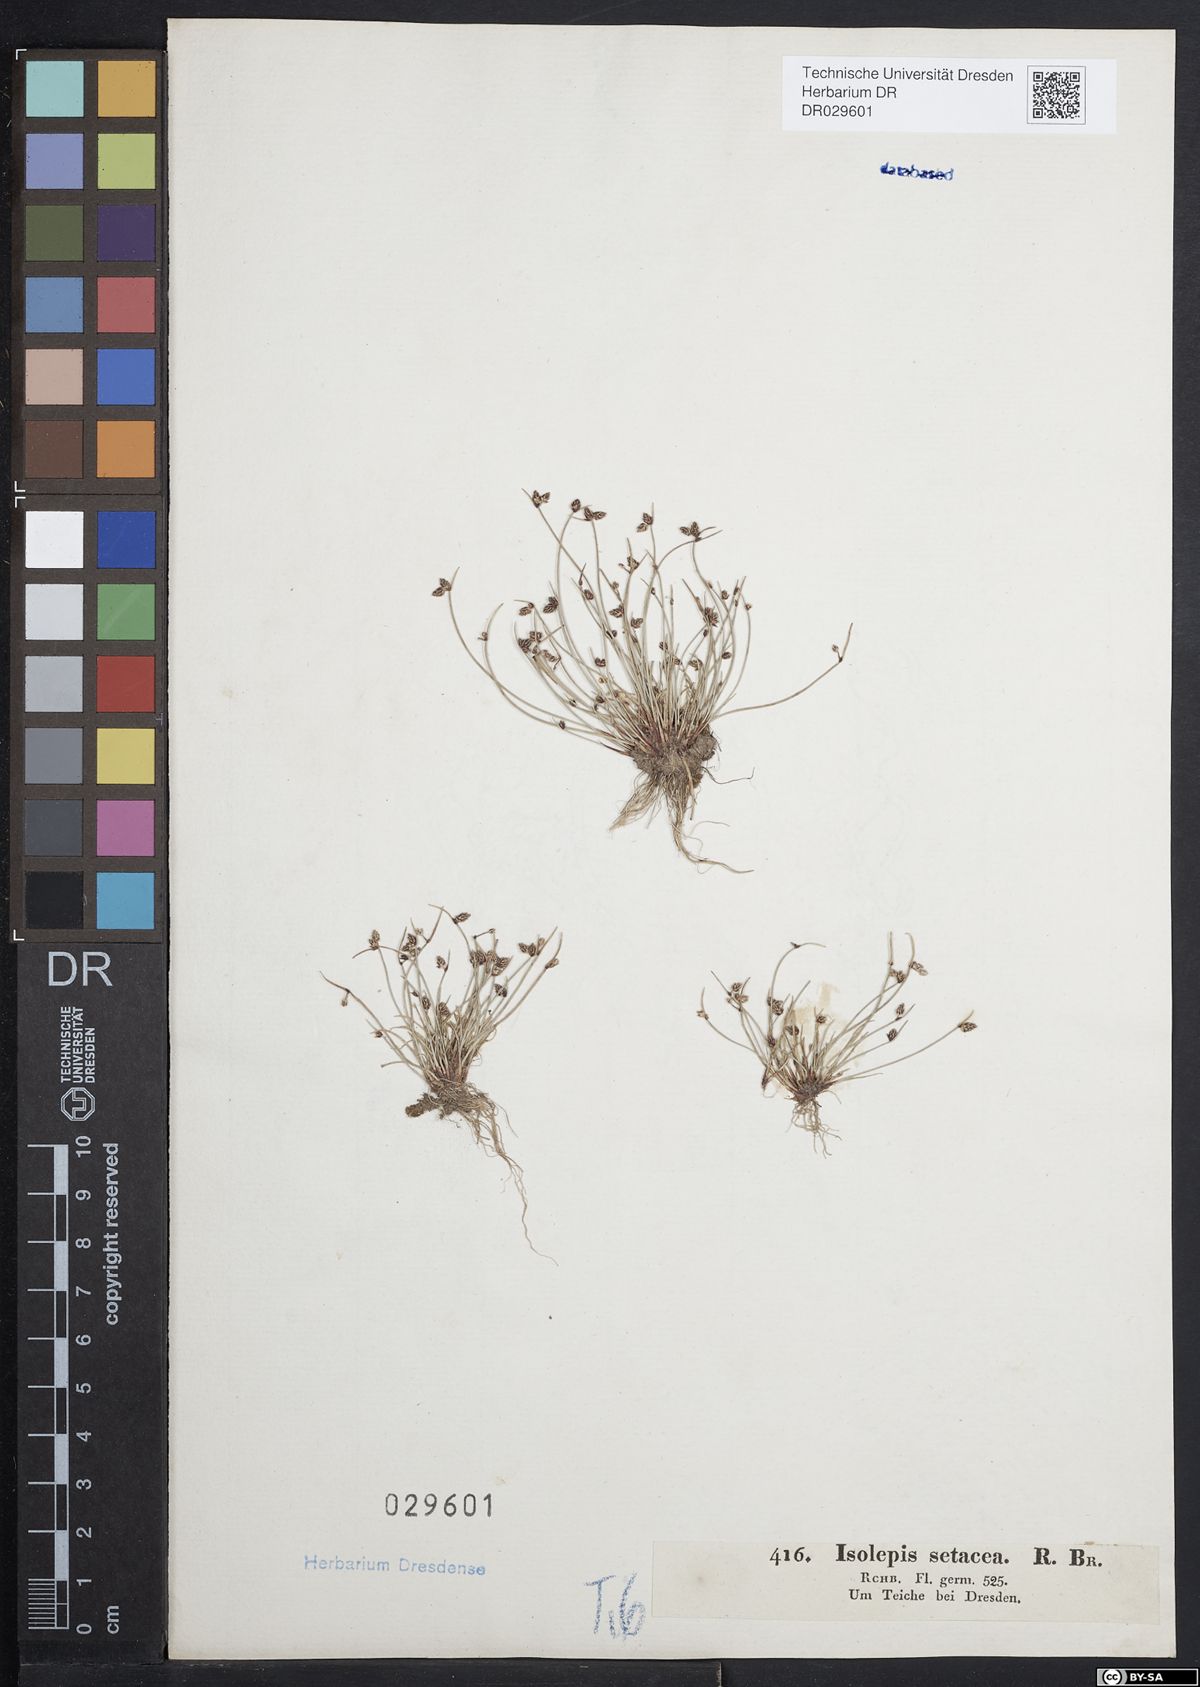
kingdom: Plantae
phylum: Tracheophyta
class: Liliopsida
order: Poales
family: Cyperaceae
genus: Isolepis
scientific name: Isolepis setacea
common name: Bristle club-rush
